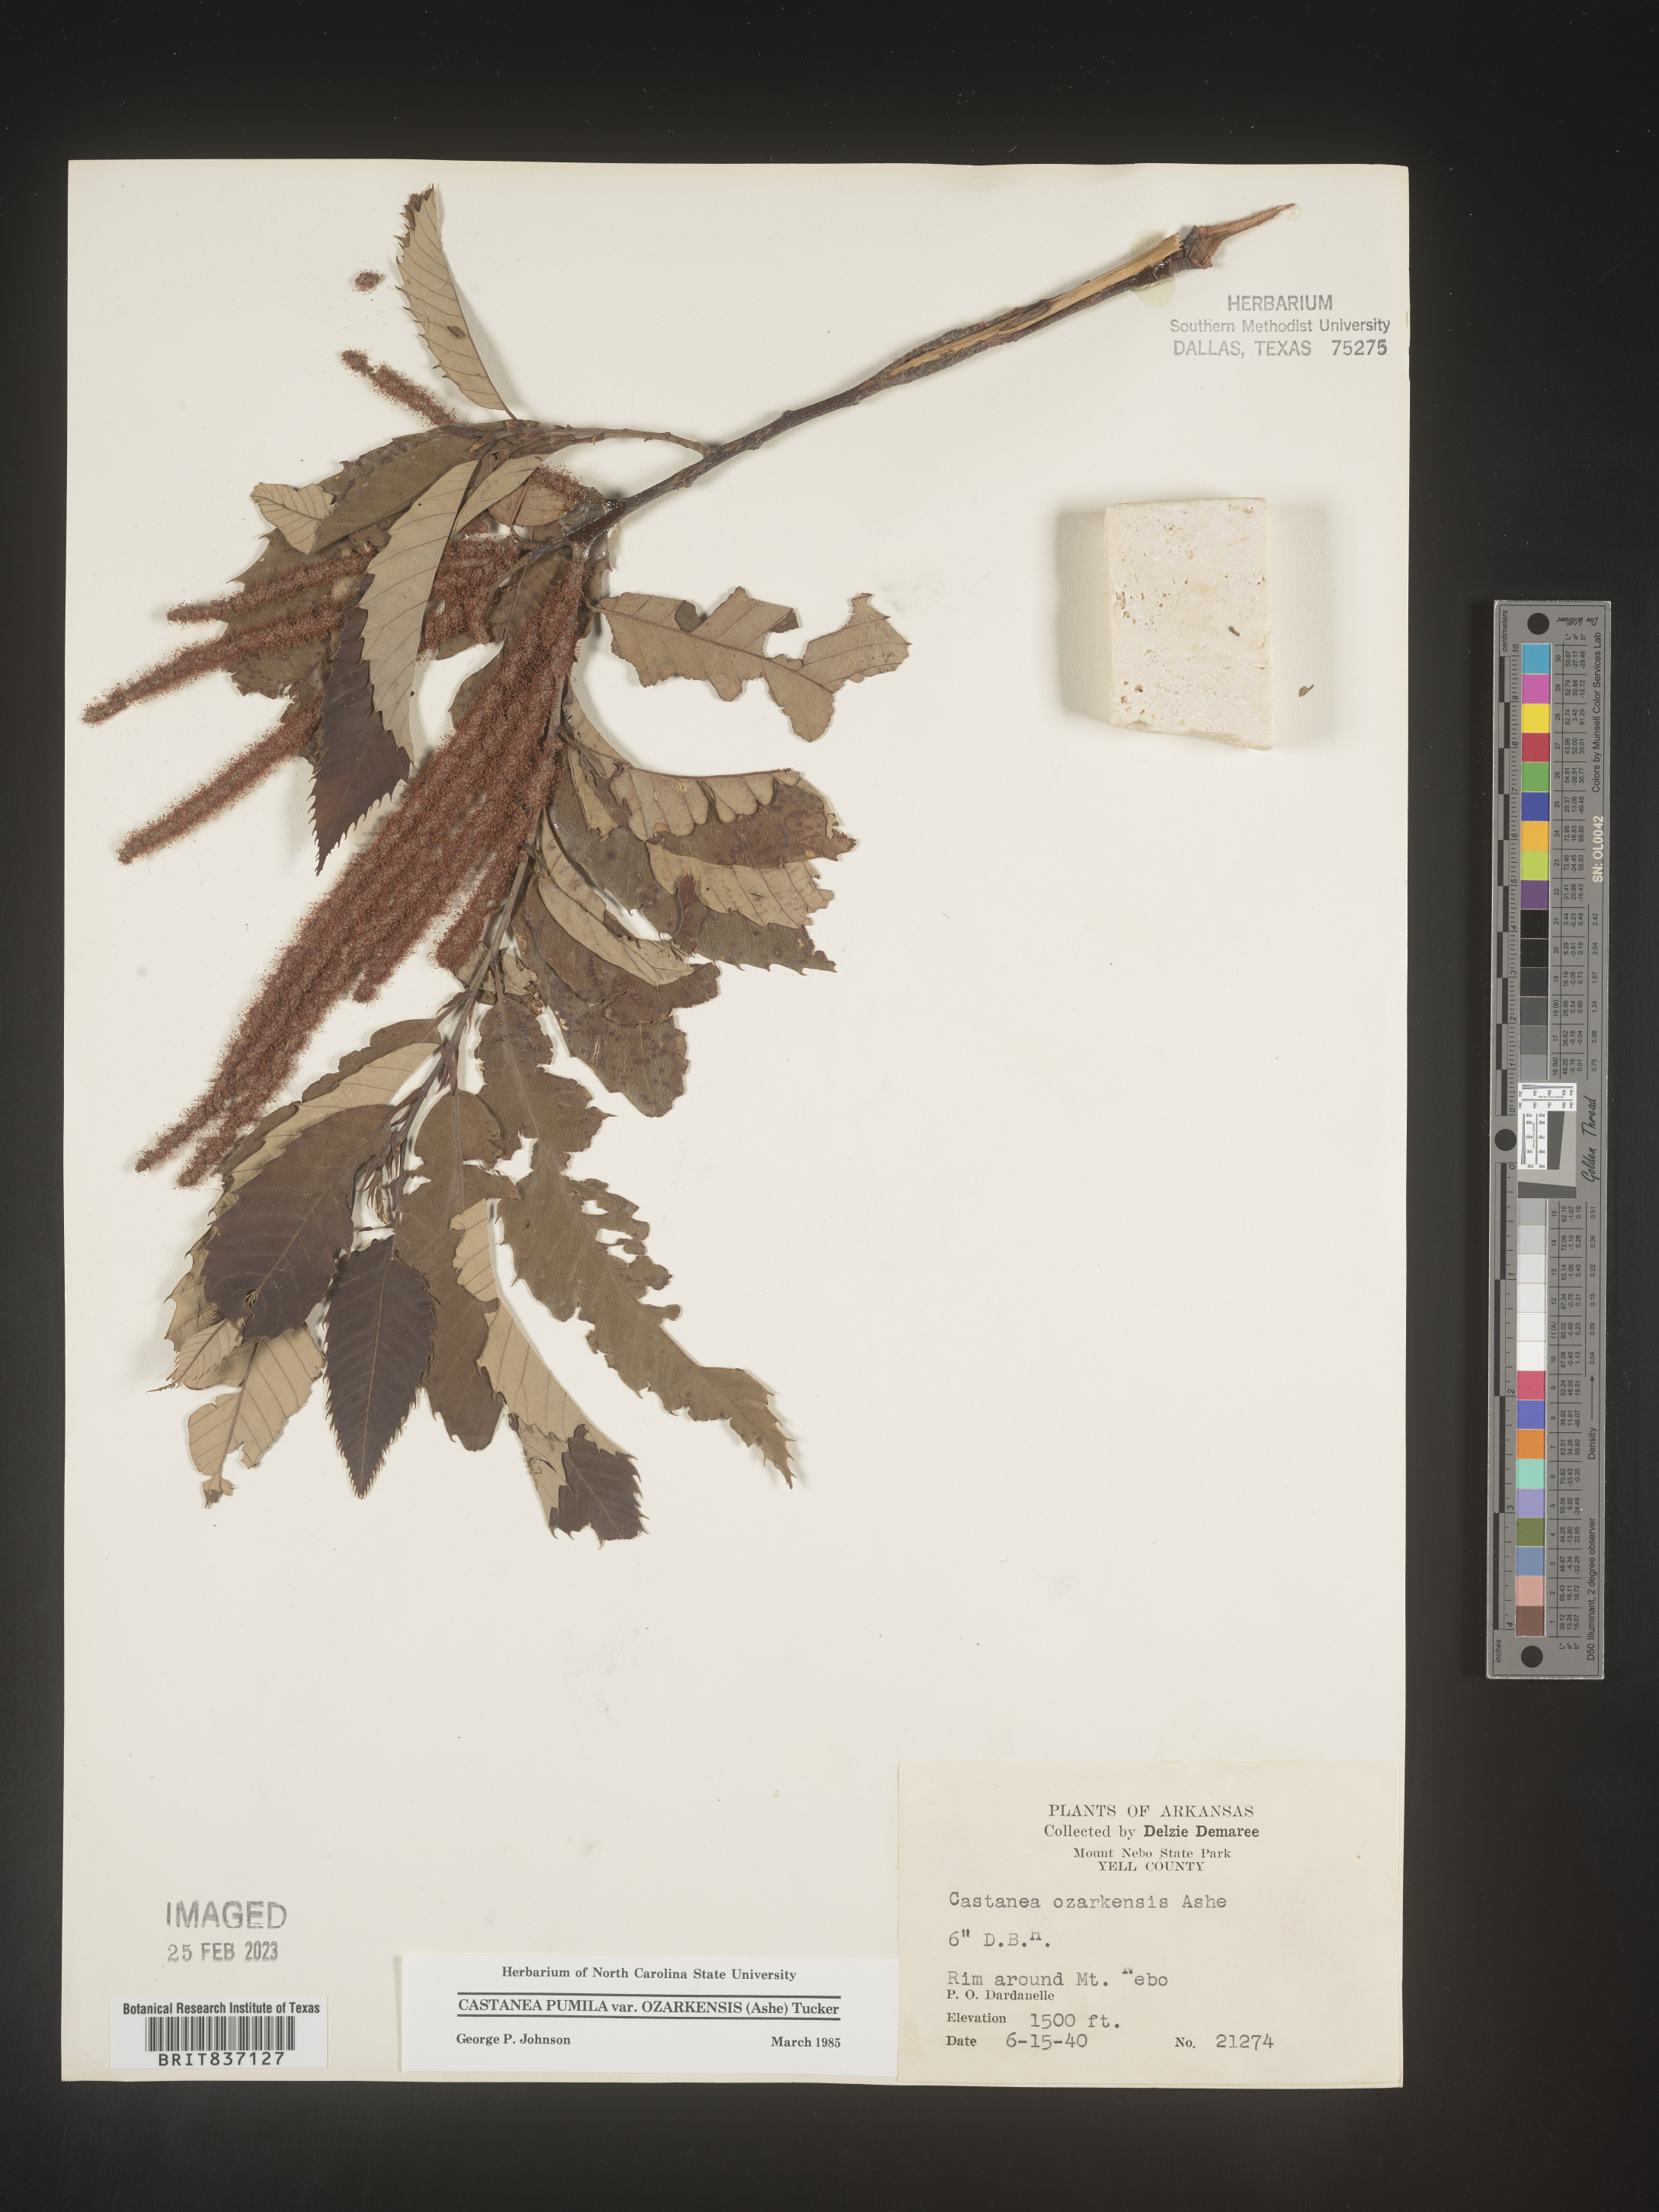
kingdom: Plantae
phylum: Tracheophyta
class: Magnoliopsida
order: Fagales
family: Fagaceae
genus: Castanea
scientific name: Castanea pumila
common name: Chinkapin
